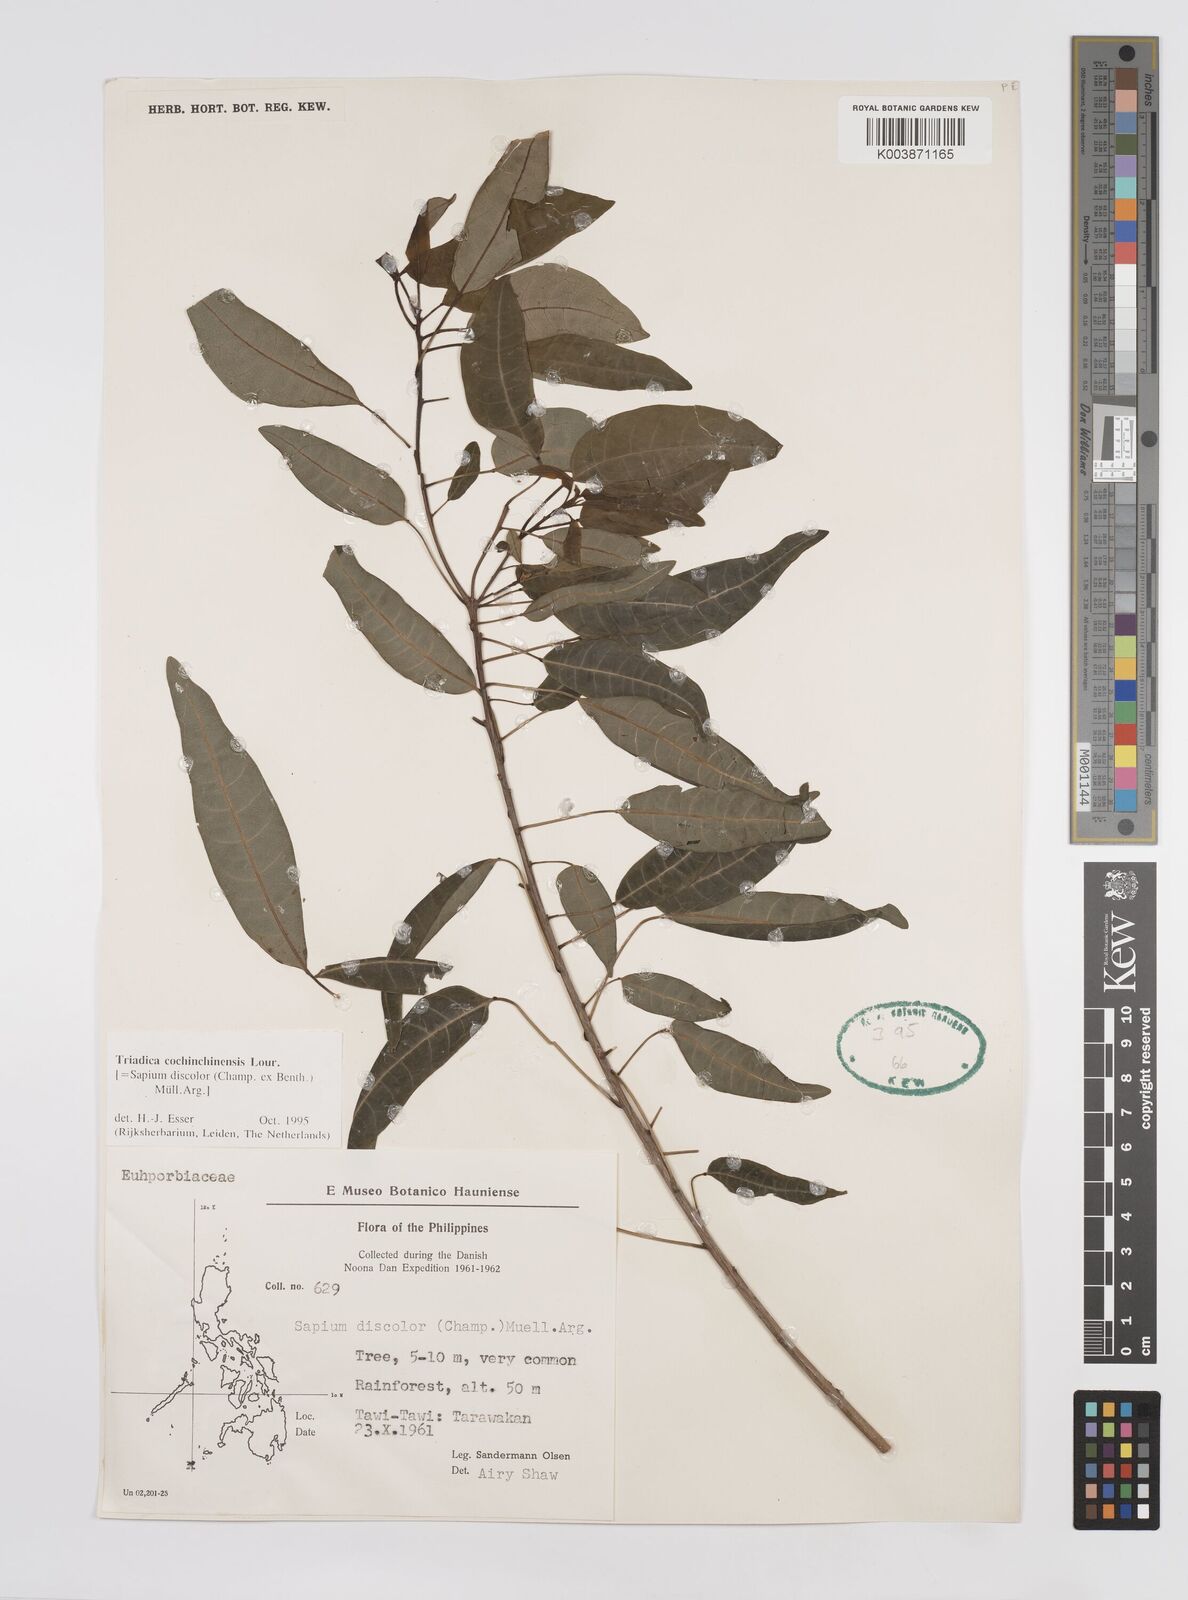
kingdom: Plantae
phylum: Tracheophyta
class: Magnoliopsida
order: Malpighiales
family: Euphorbiaceae
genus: Triadica
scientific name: Triadica cochinchinensis
